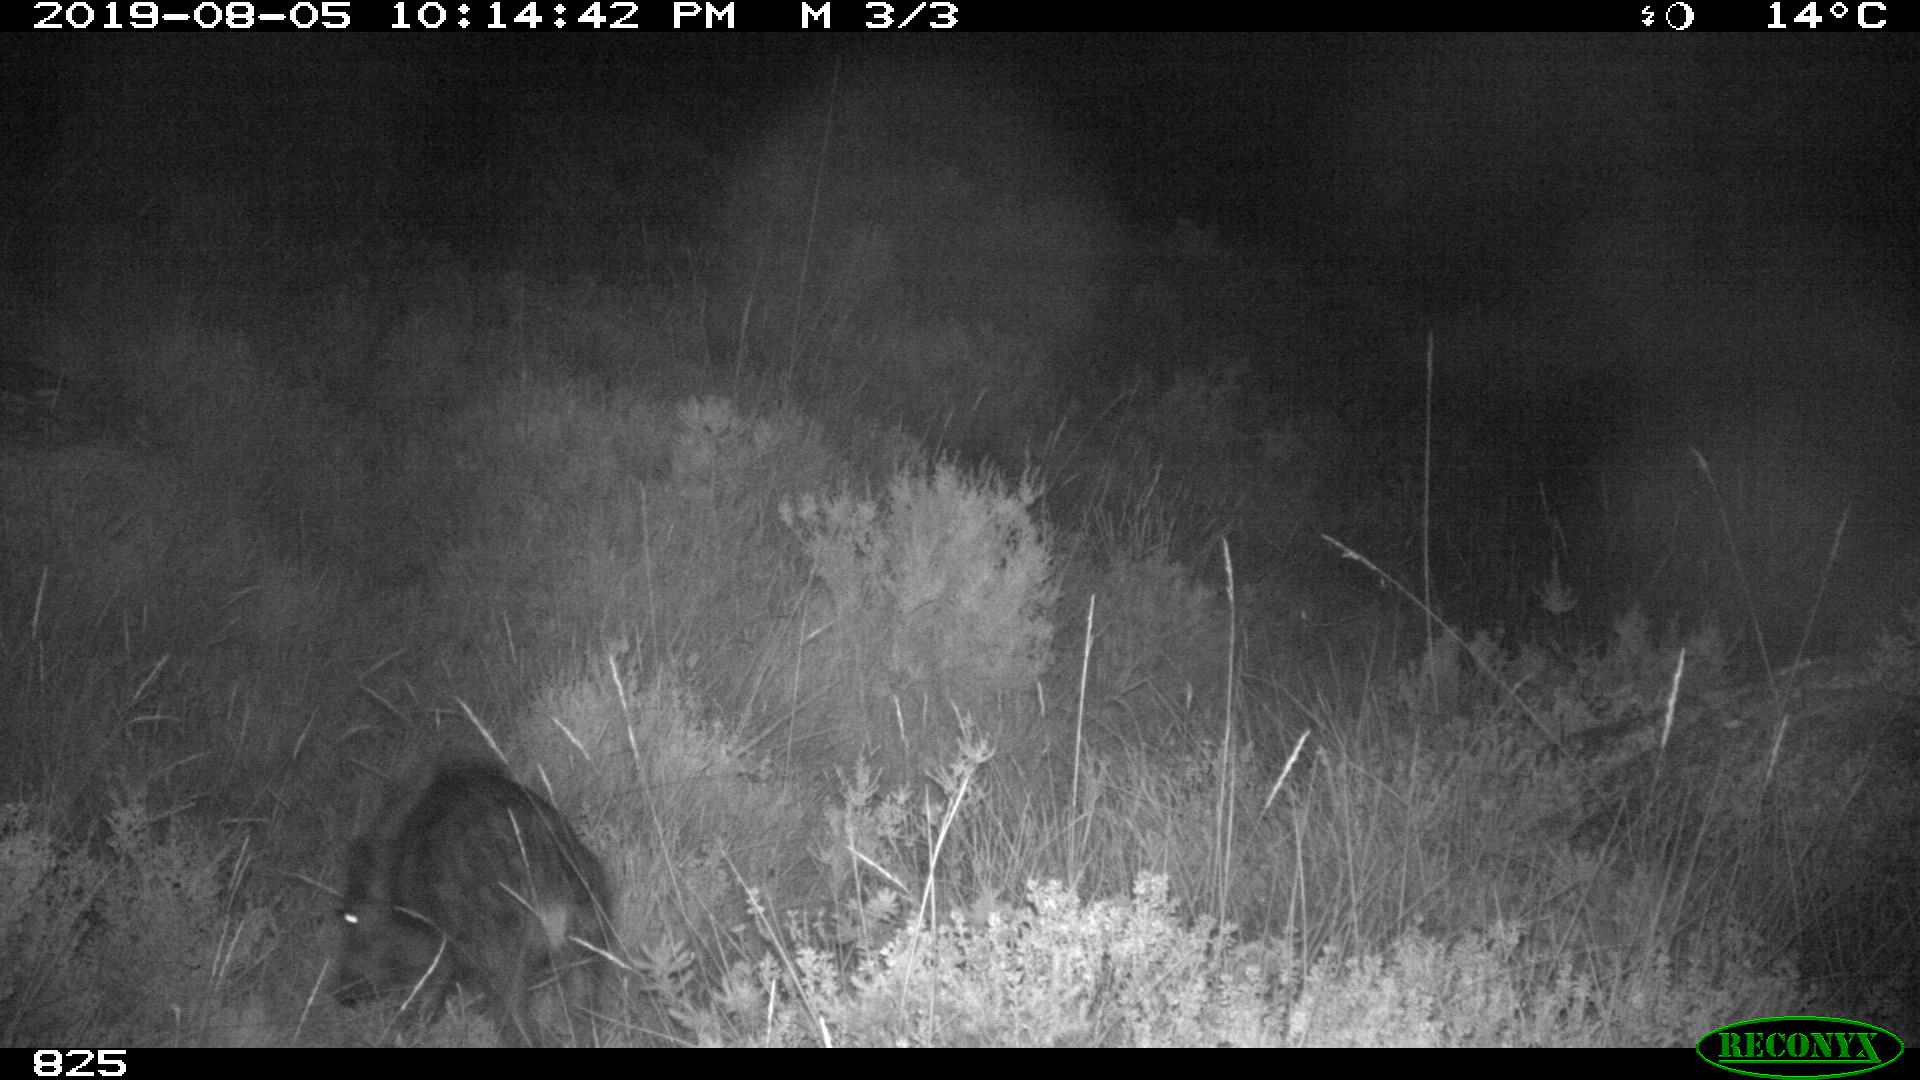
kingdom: Animalia
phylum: Chordata
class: Mammalia
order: Artiodactyla
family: Suidae
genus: Sus
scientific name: Sus scrofa
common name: Wild boar
